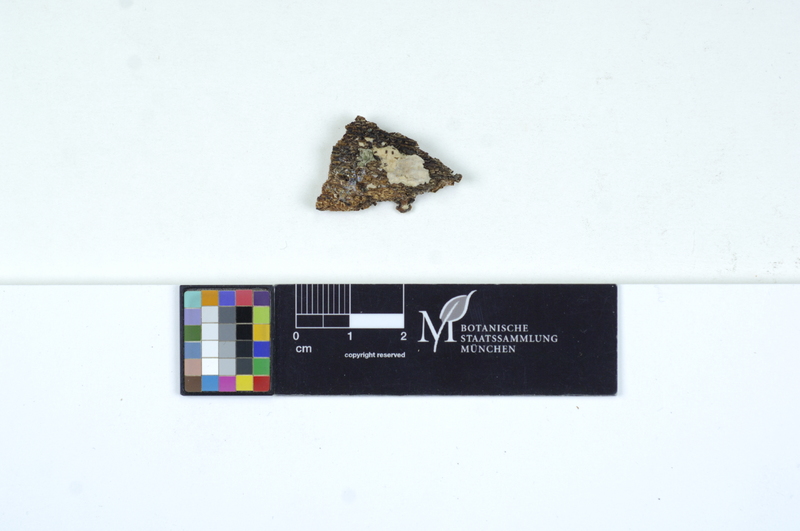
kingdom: Fungi
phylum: Basidiomycota
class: Agaricomycetes
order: Auriculariales
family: Auriculariaceae
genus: Heteroradulum
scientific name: Heteroradulum deglubens
